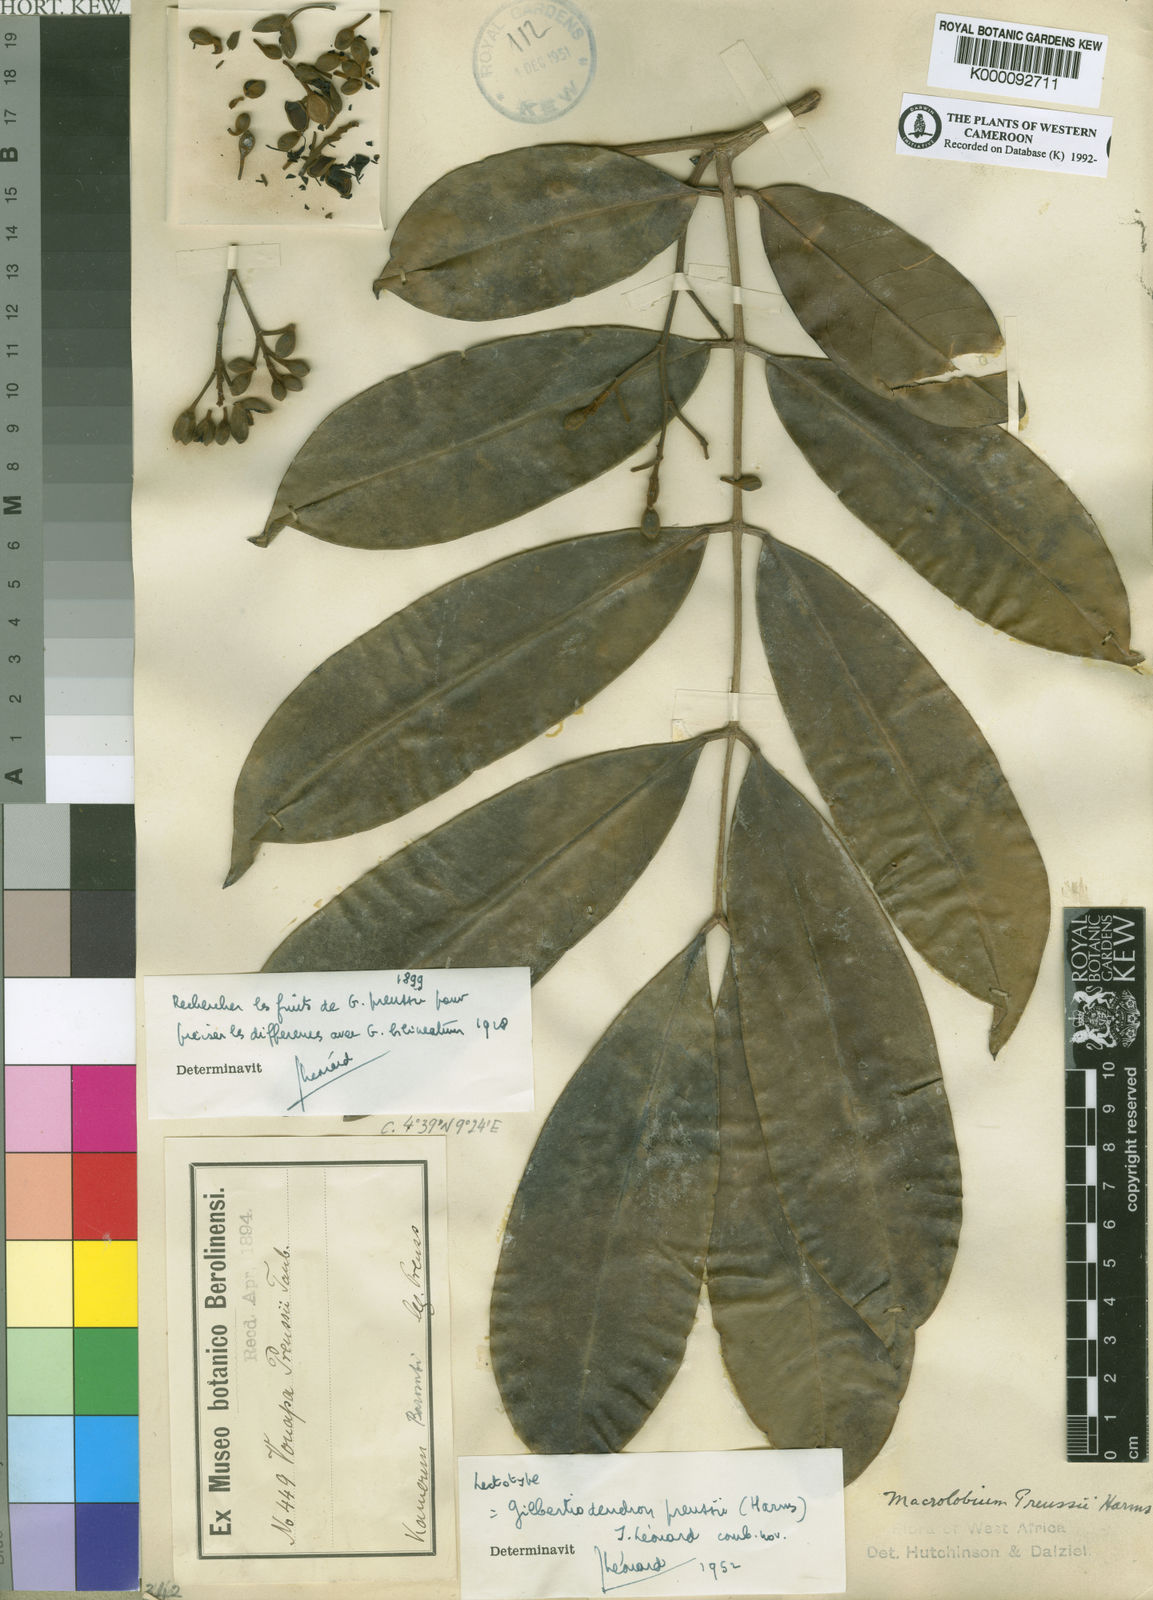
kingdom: Plantae
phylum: Tracheophyta
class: Magnoliopsida
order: Fabales
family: Fabaceae
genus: Gilbertiodendron
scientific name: Gilbertiodendron preussii
